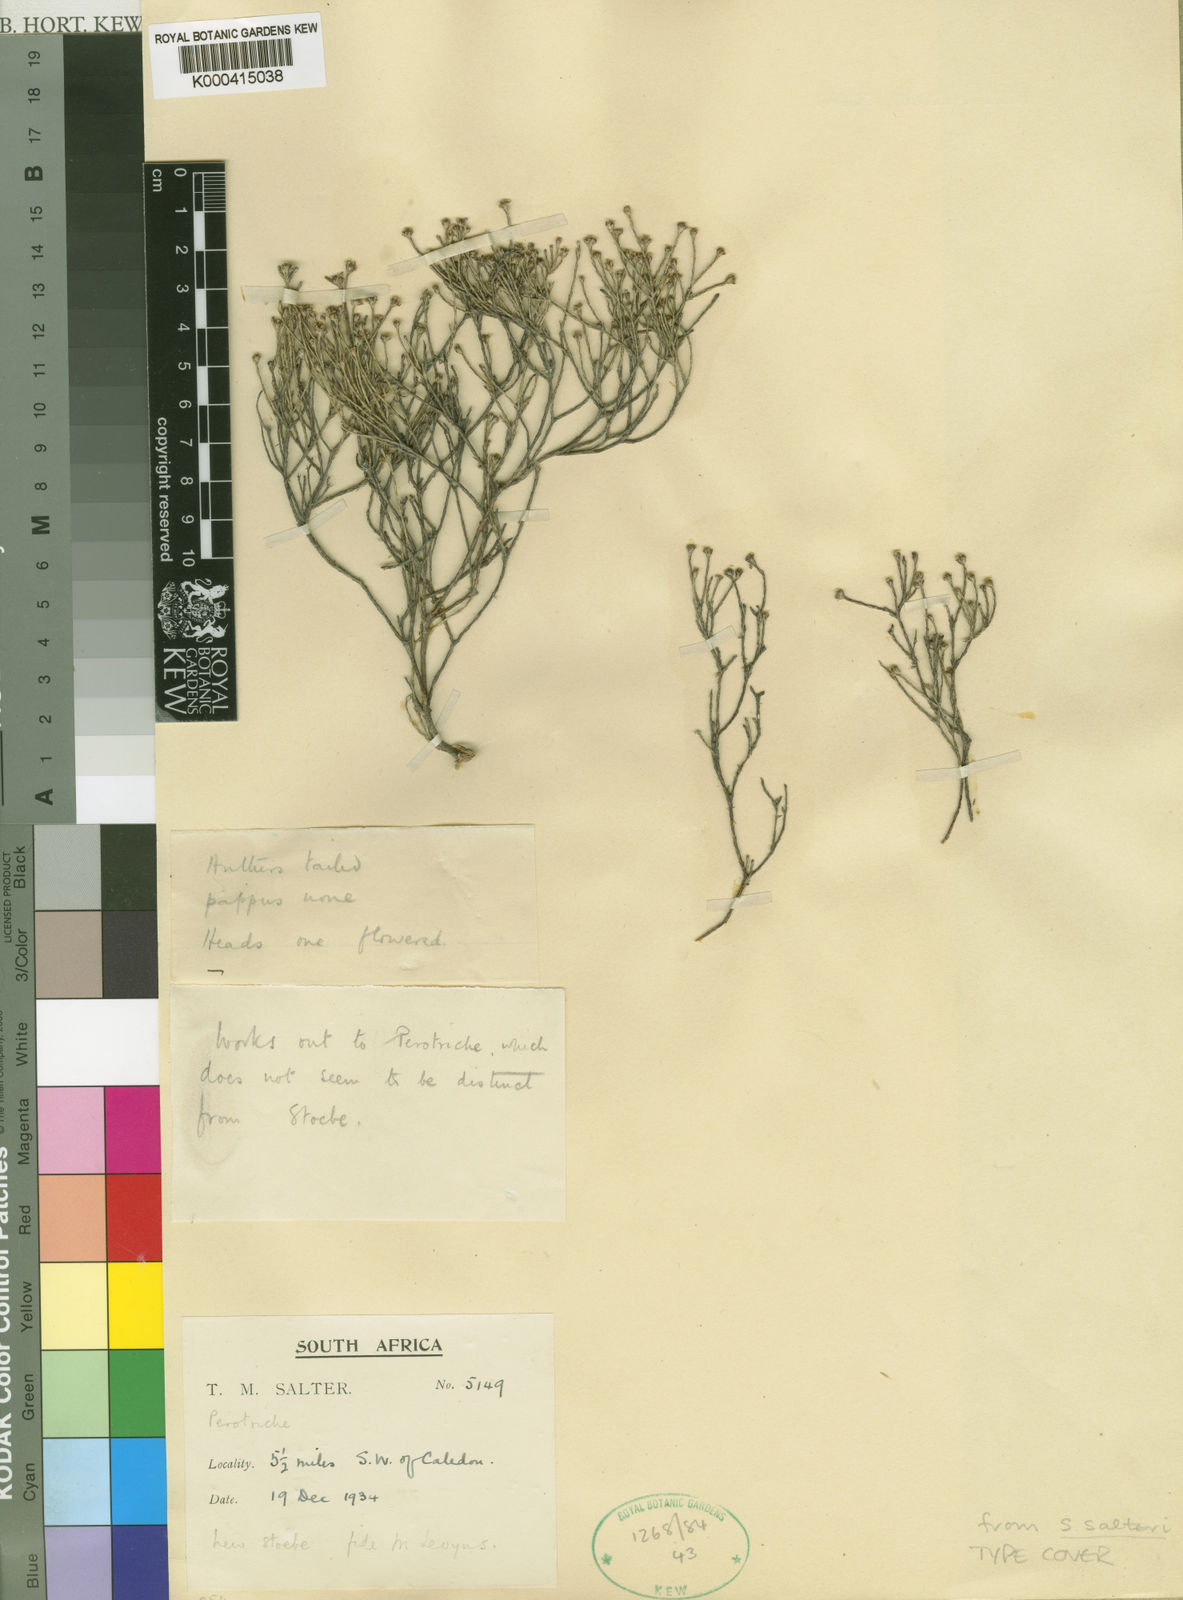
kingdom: Plantae
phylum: Tracheophyta
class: Magnoliopsida
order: Asterales
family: Asteraceae
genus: Stoebe
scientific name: Stoebe schultzii
